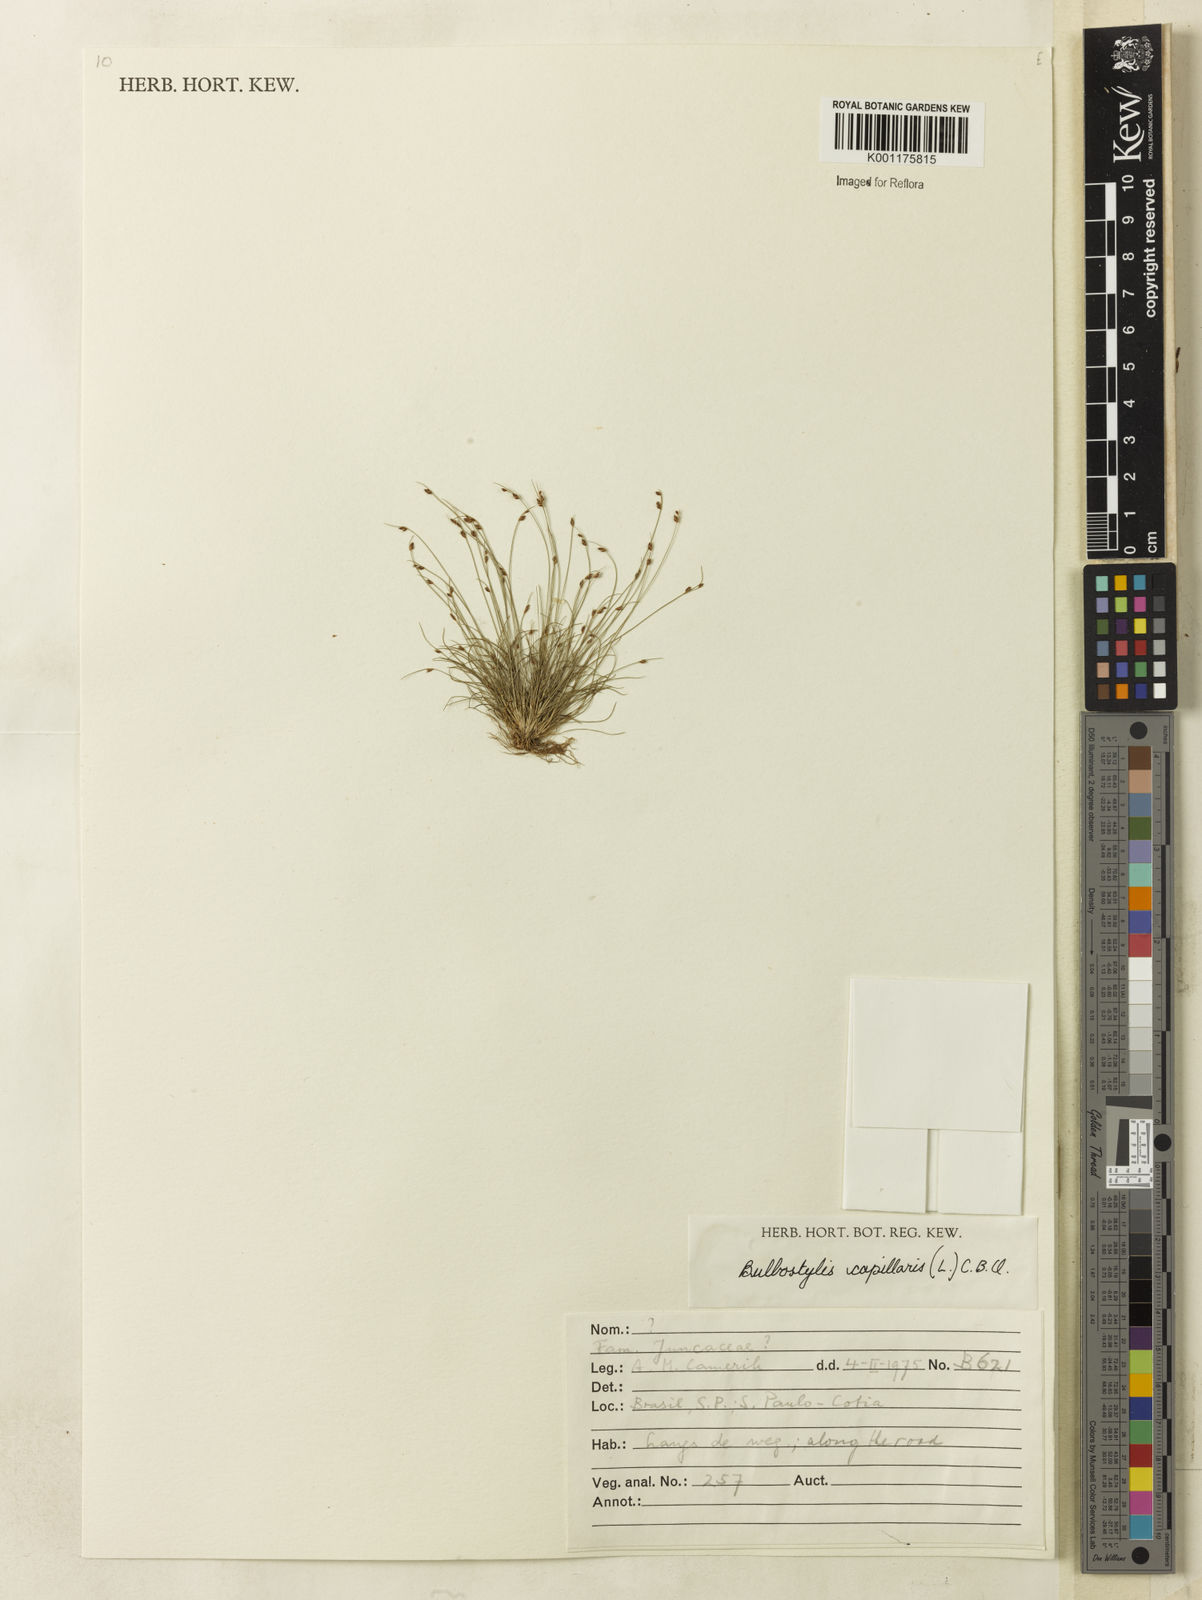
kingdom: Plantae
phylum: Tracheophyta
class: Liliopsida
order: Poales
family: Cyperaceae
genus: Bulbostylis
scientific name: Bulbostylis capillaris
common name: Densetuft hairsedge
